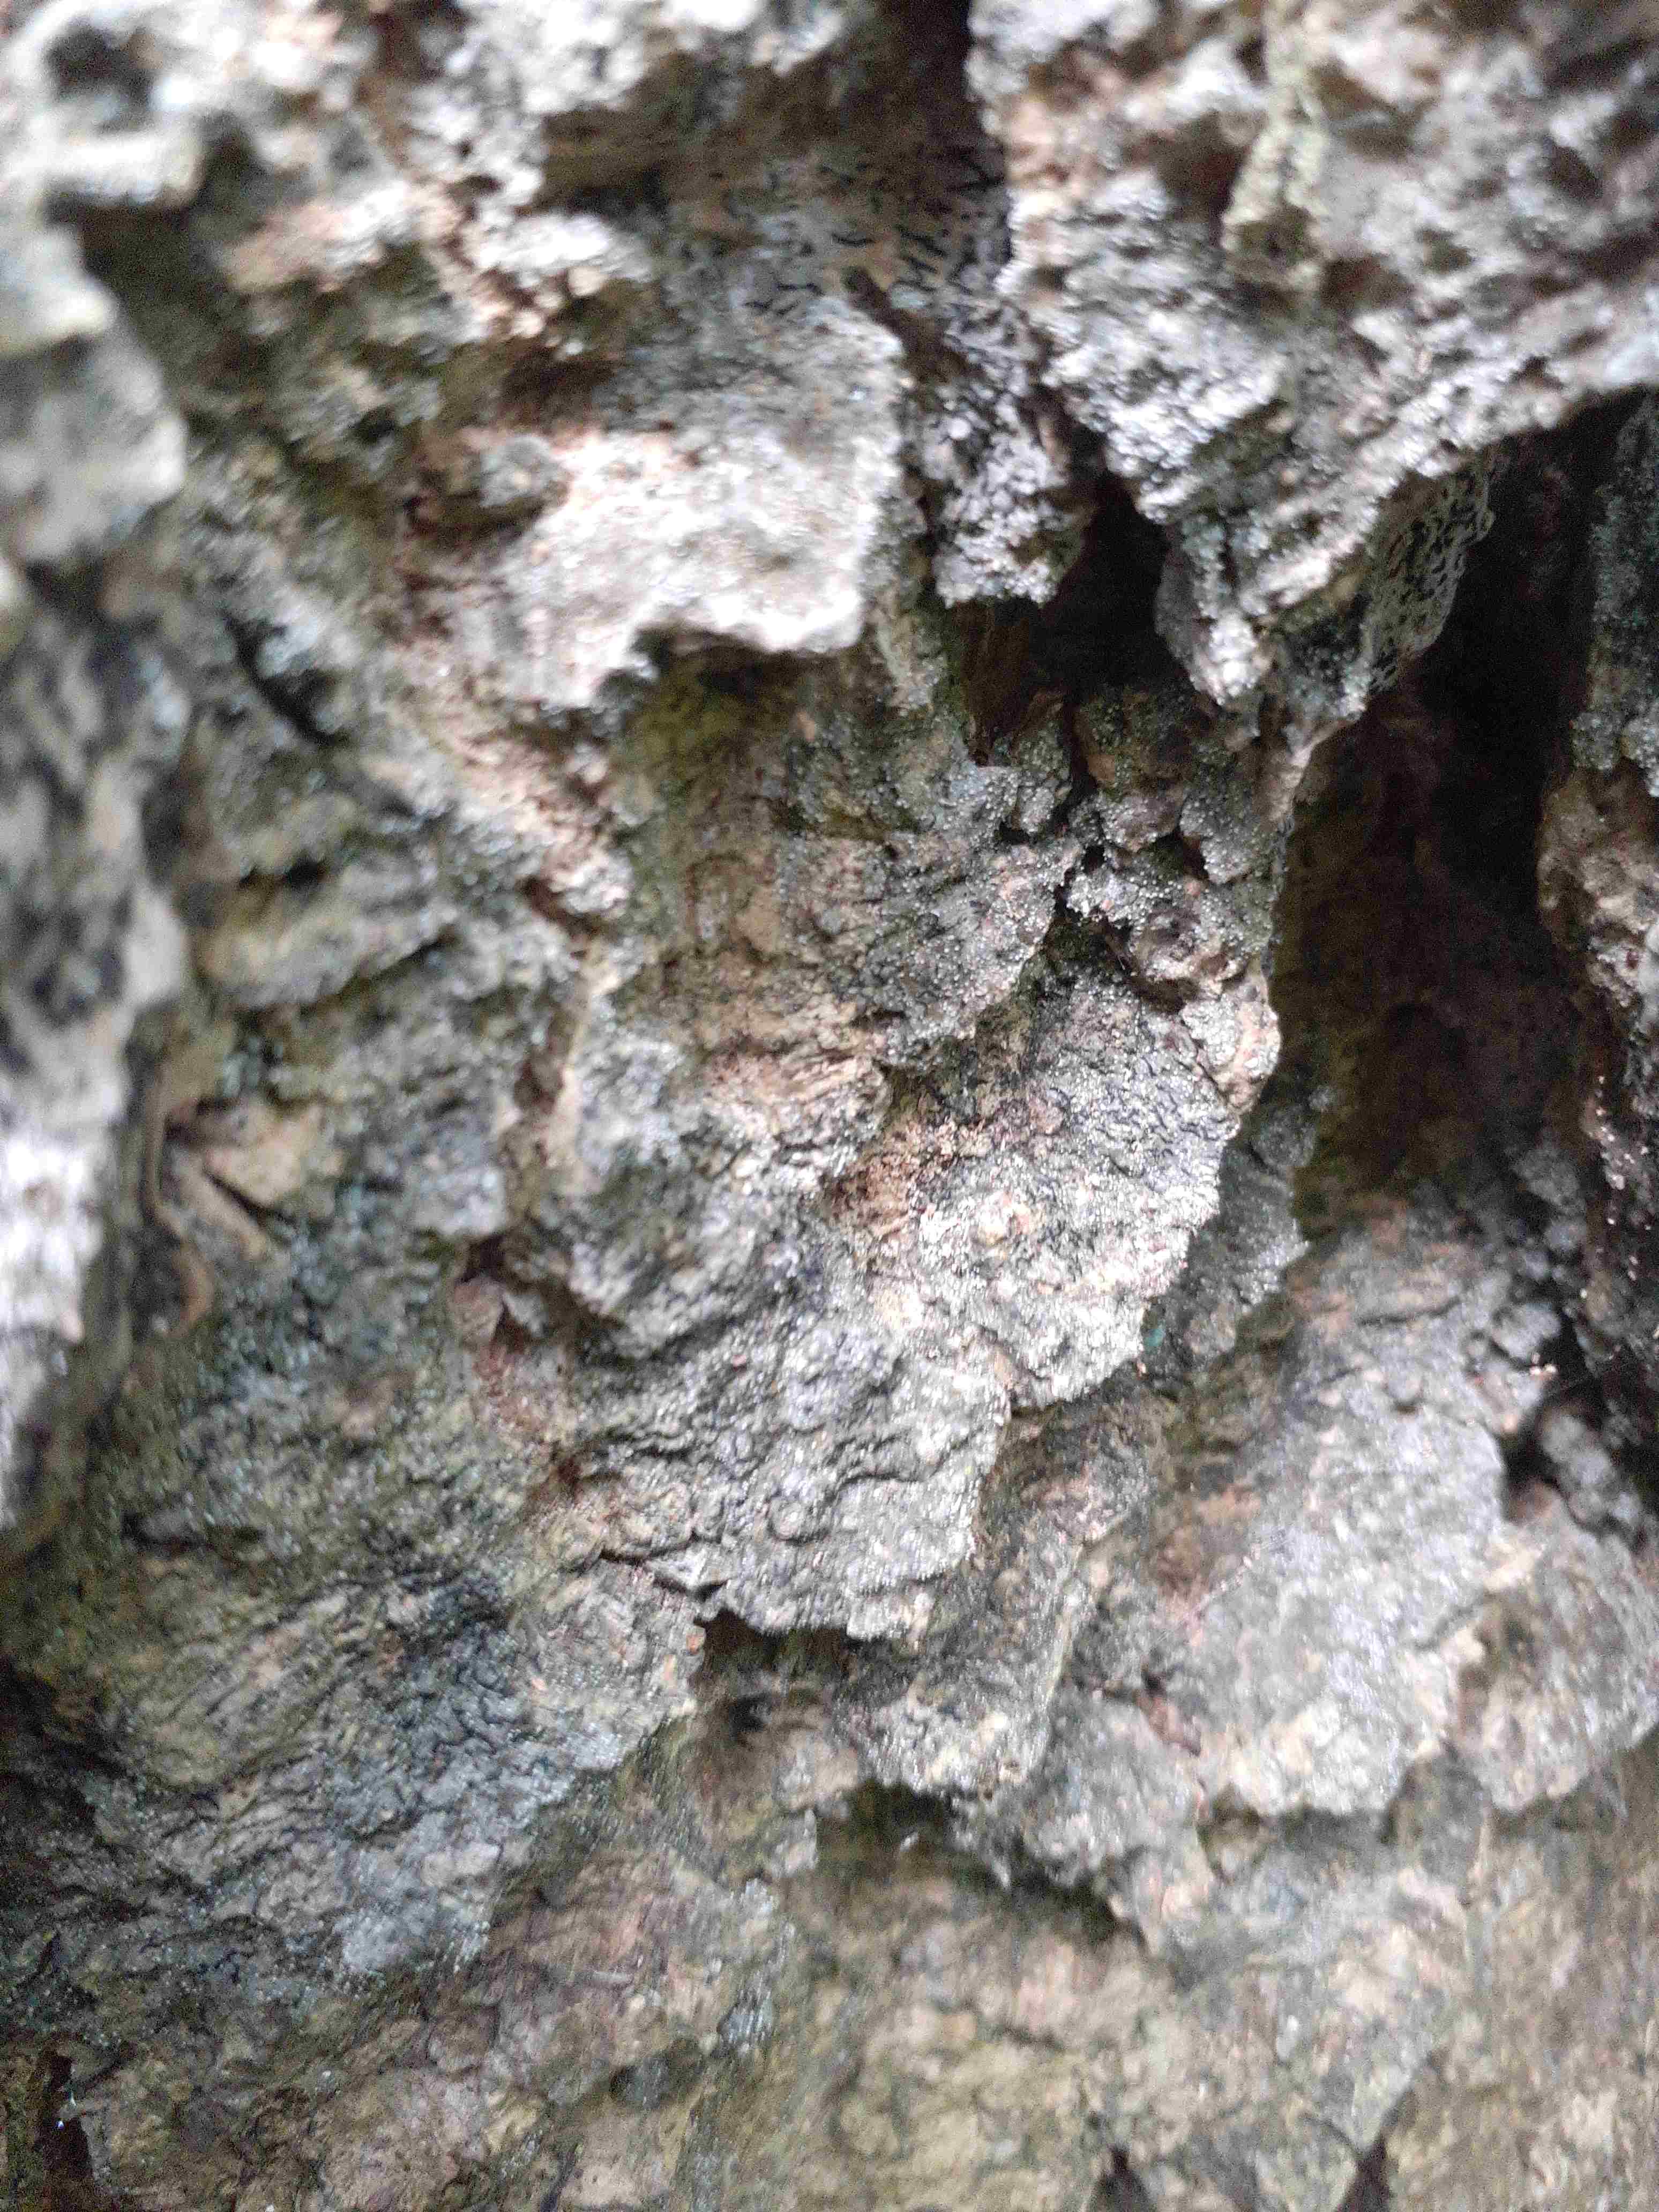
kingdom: Fungi
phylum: Ascomycota
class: Arthoniomycetes
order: Arthoniales
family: Opegraphaceae
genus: Opegrapha
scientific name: Opegrapha vermicellifera
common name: nåleprikket bogstavlav
